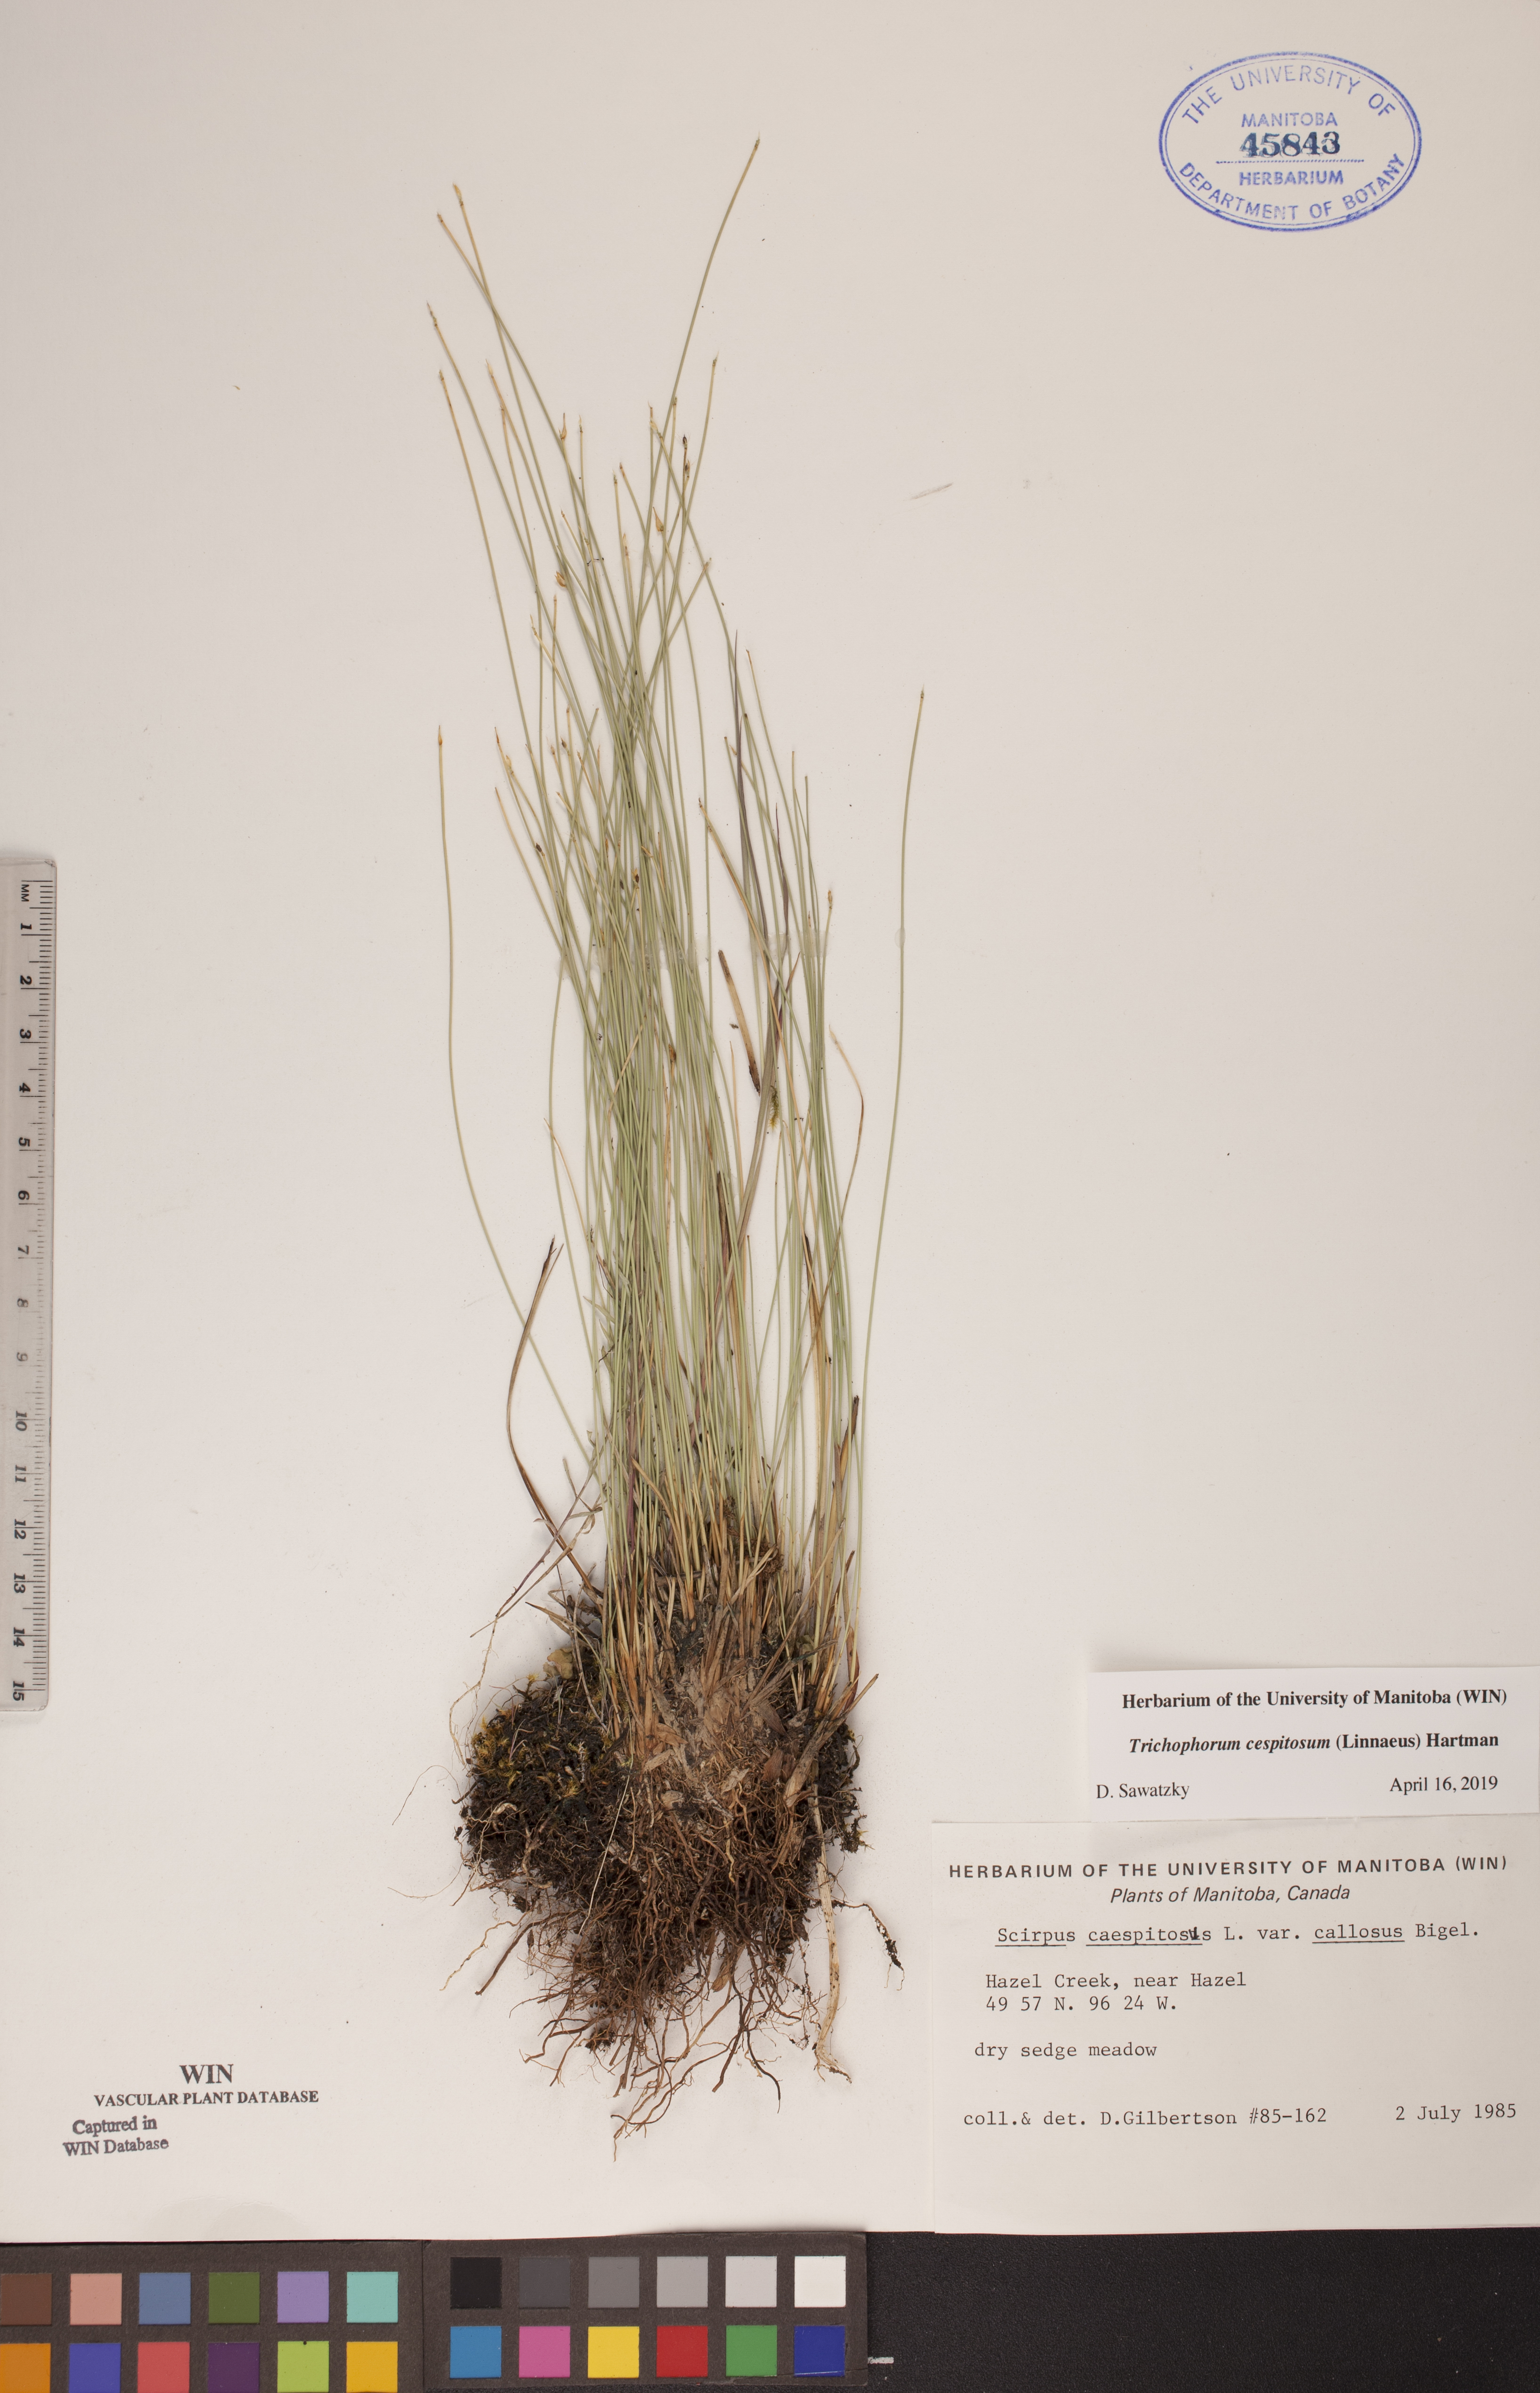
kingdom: Plantae
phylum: Tracheophyta
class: Liliopsida
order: Poales
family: Cyperaceae
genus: Trichophorum
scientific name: Trichophorum cespitosum
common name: Cespitose bulrush
